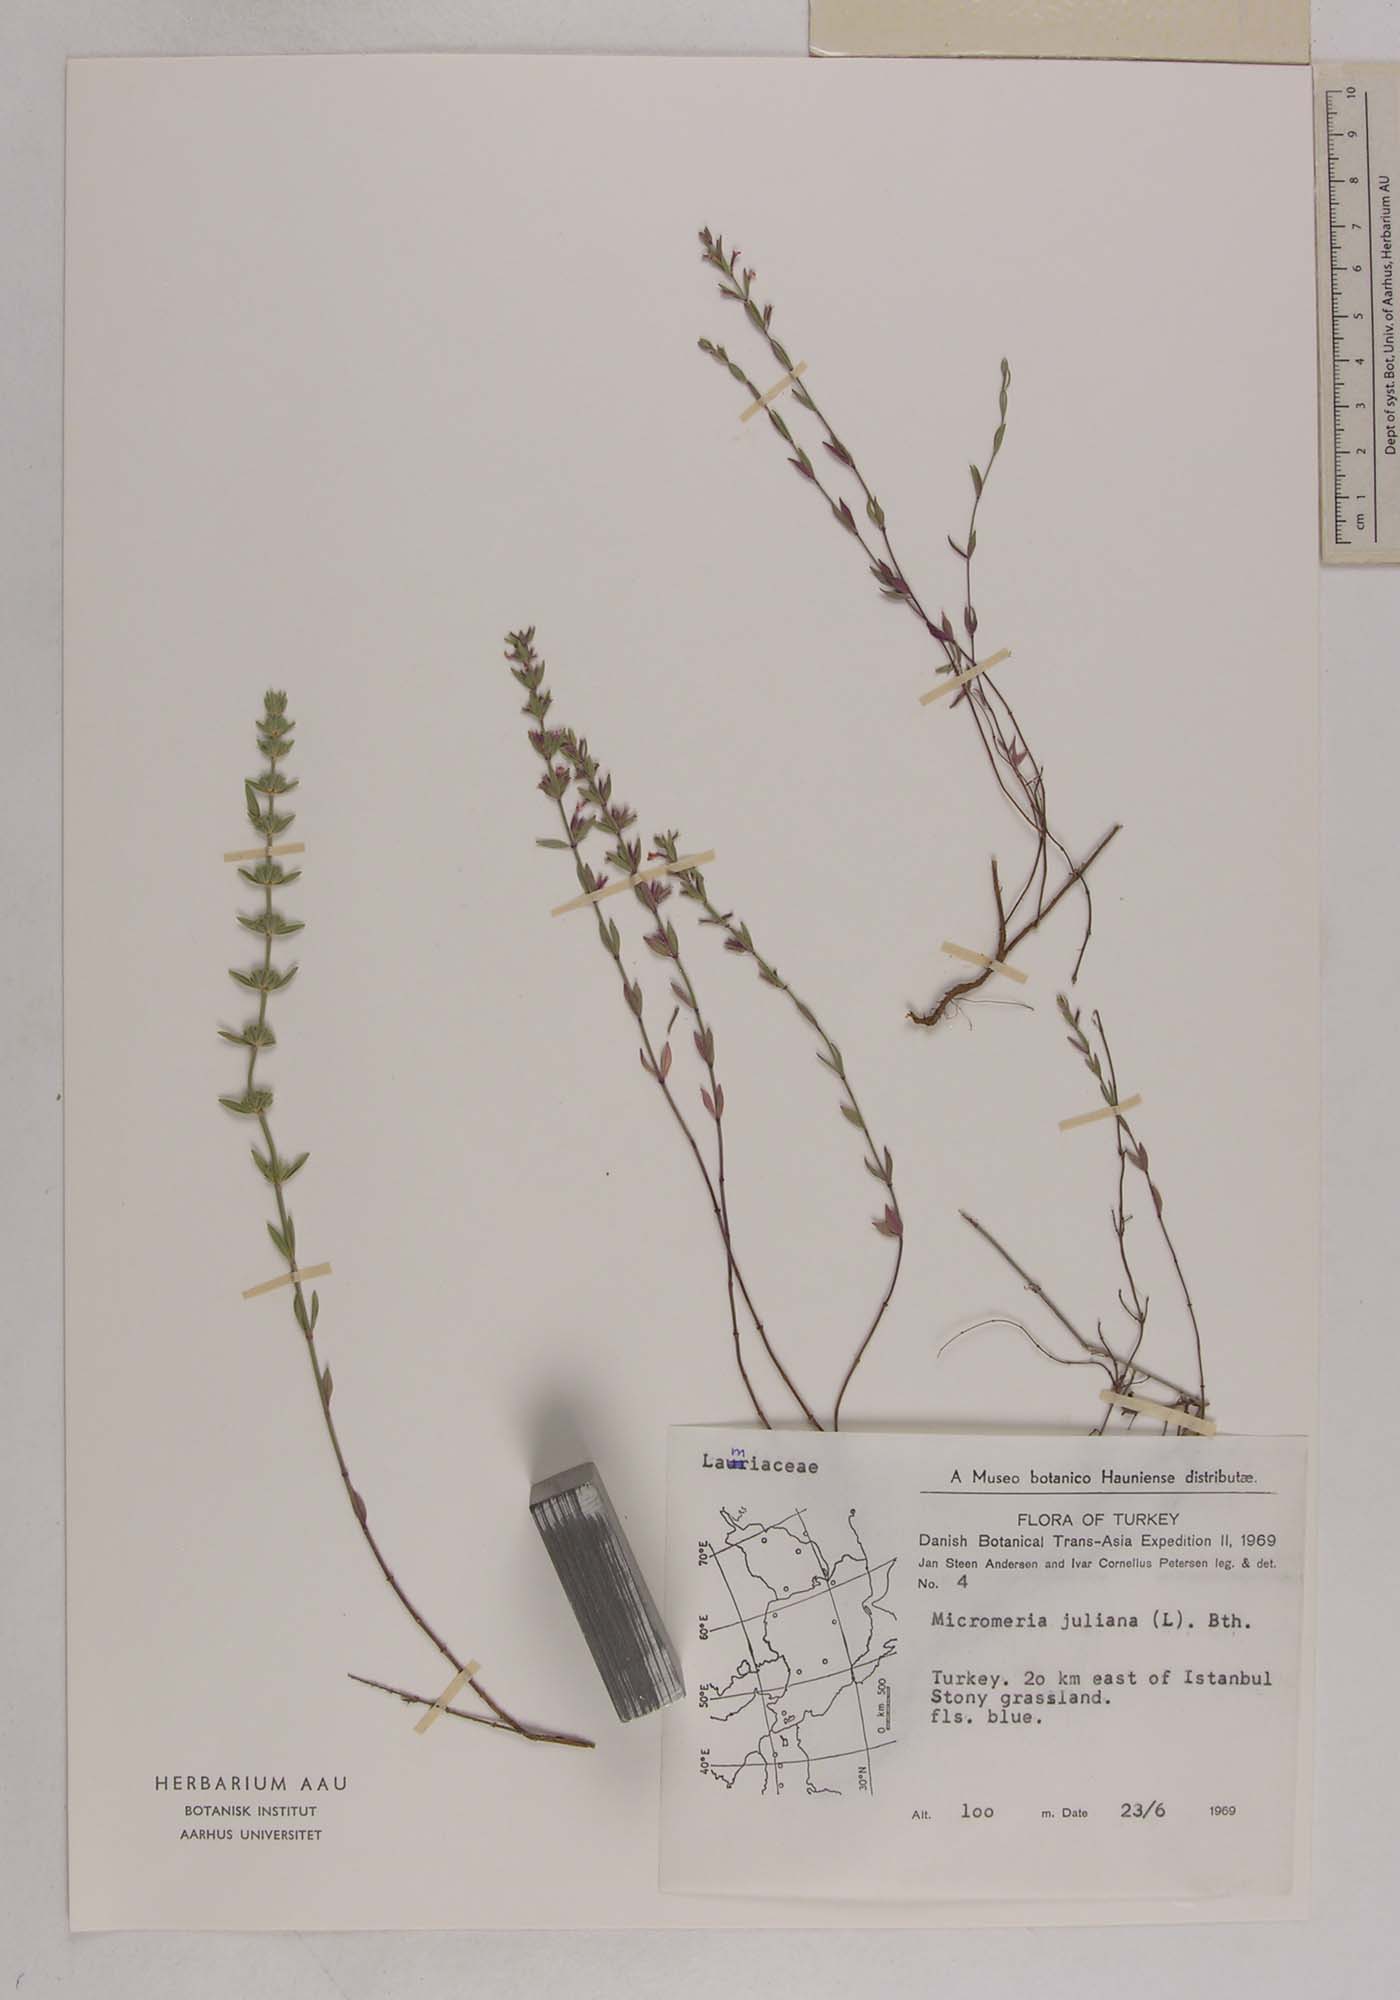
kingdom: Plantae
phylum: Tracheophyta
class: Magnoliopsida
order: Lamiales
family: Lamiaceae
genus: Micromeria
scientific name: Micromeria juliana
